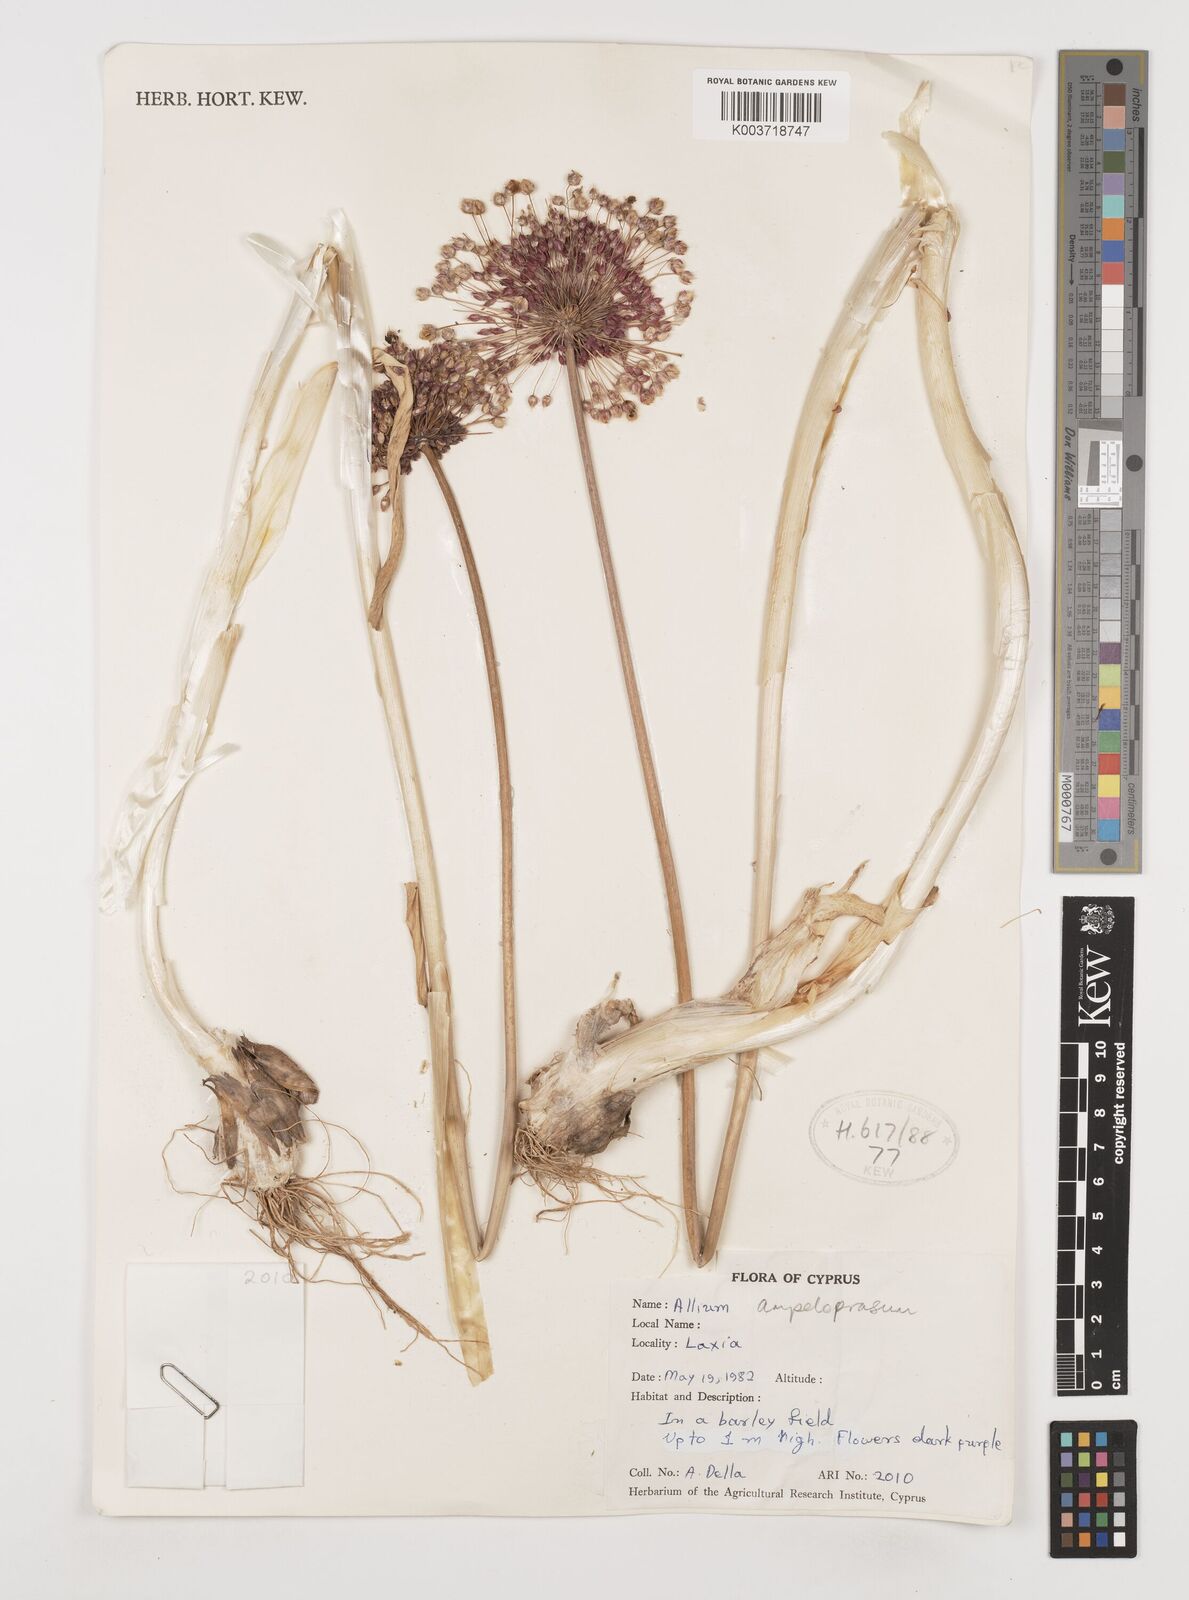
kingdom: Plantae
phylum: Tracheophyta
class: Liliopsida
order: Asparagales
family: Amaryllidaceae
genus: Allium
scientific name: Allium rotundum
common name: Sand leek
